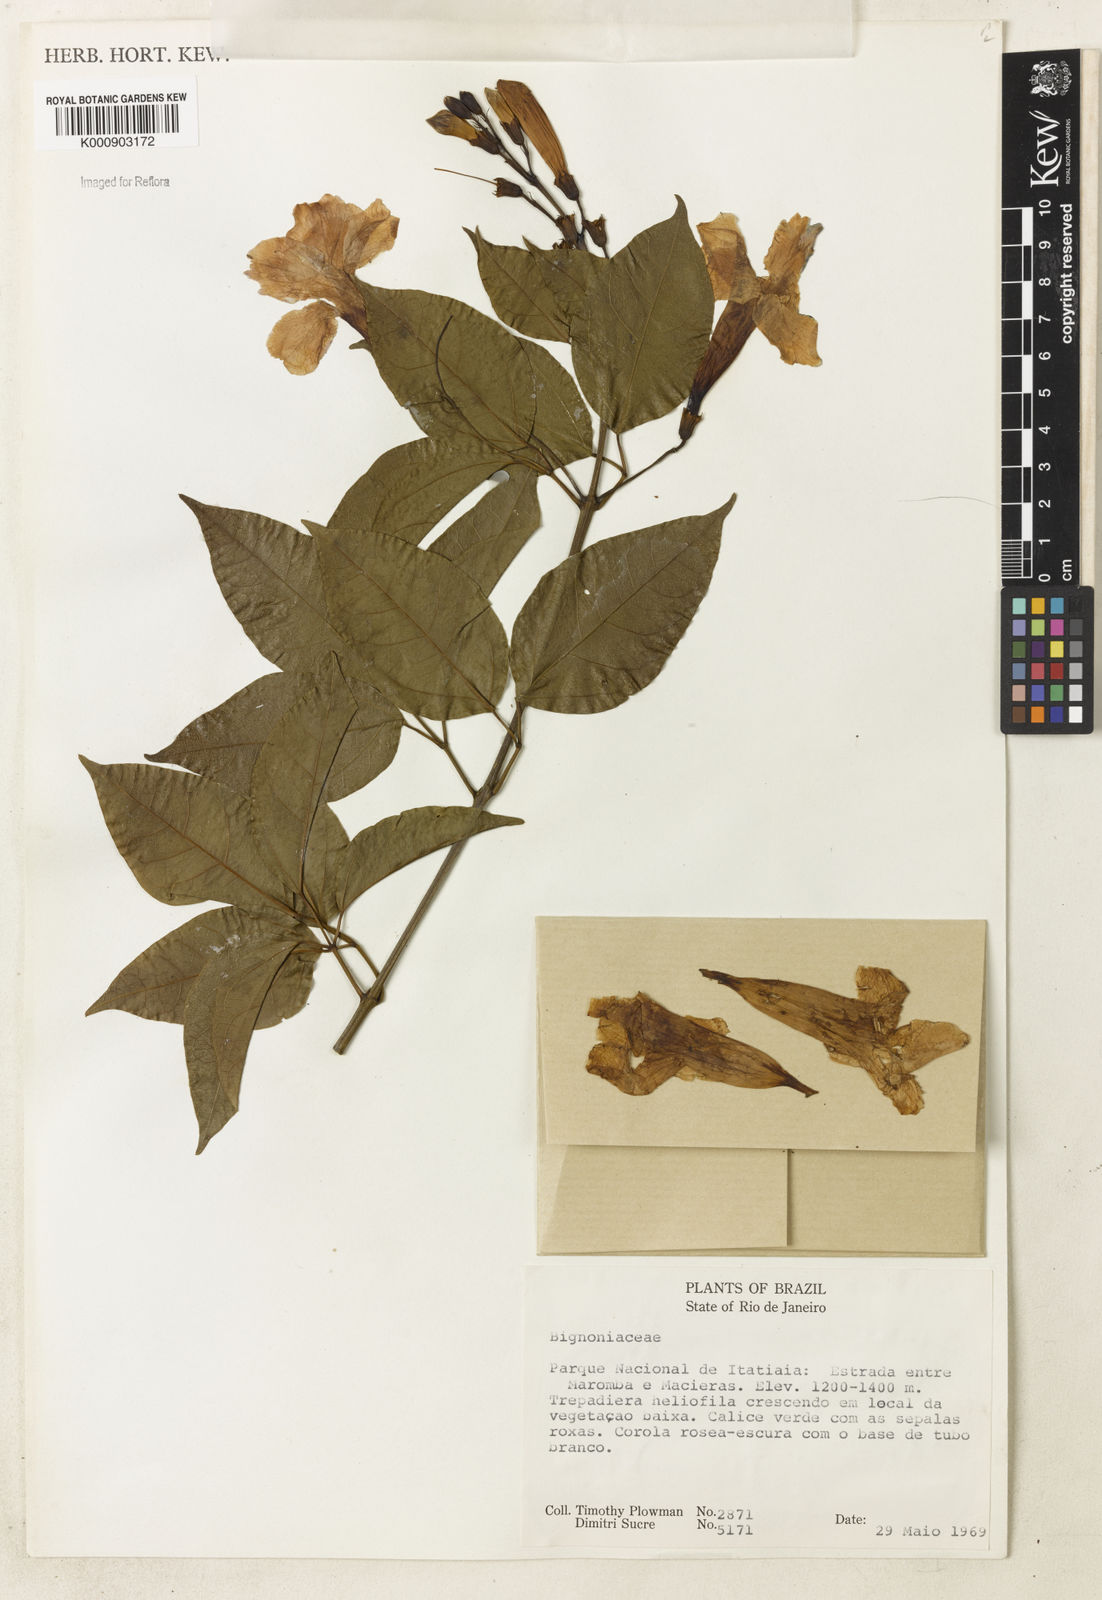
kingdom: Plantae
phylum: Tracheophyta
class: Magnoliopsida
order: Lamiales
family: Bignoniaceae
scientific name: Bignoniaceae
